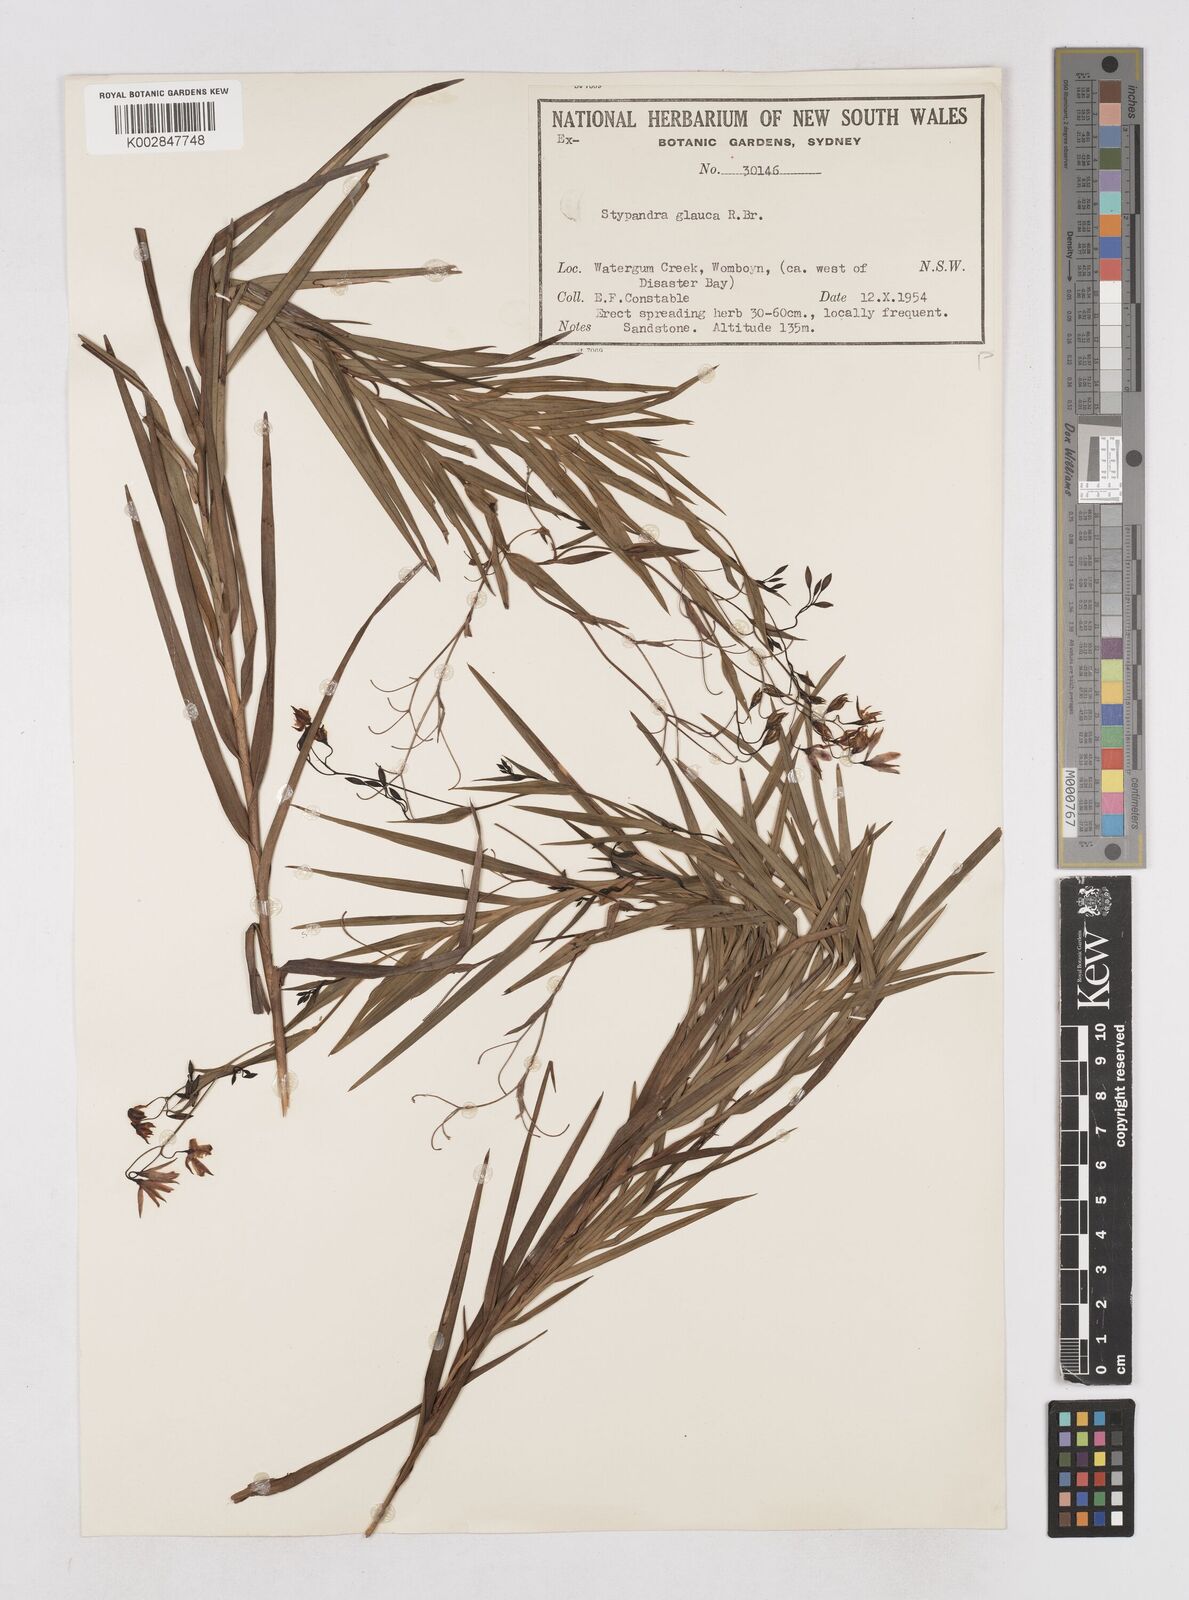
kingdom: Plantae
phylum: Tracheophyta
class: Liliopsida
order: Asparagales
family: Asphodelaceae
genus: Stypandra
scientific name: Stypandra glauca
